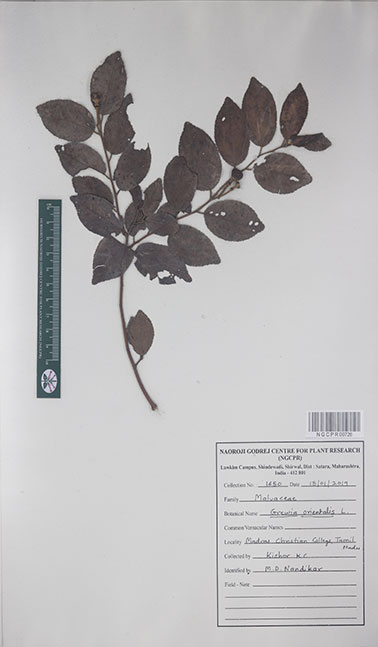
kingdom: Plantae
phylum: Tracheophyta
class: Magnoliopsida
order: Malvales
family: Malvaceae
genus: Grewia
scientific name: Grewia orientalis
